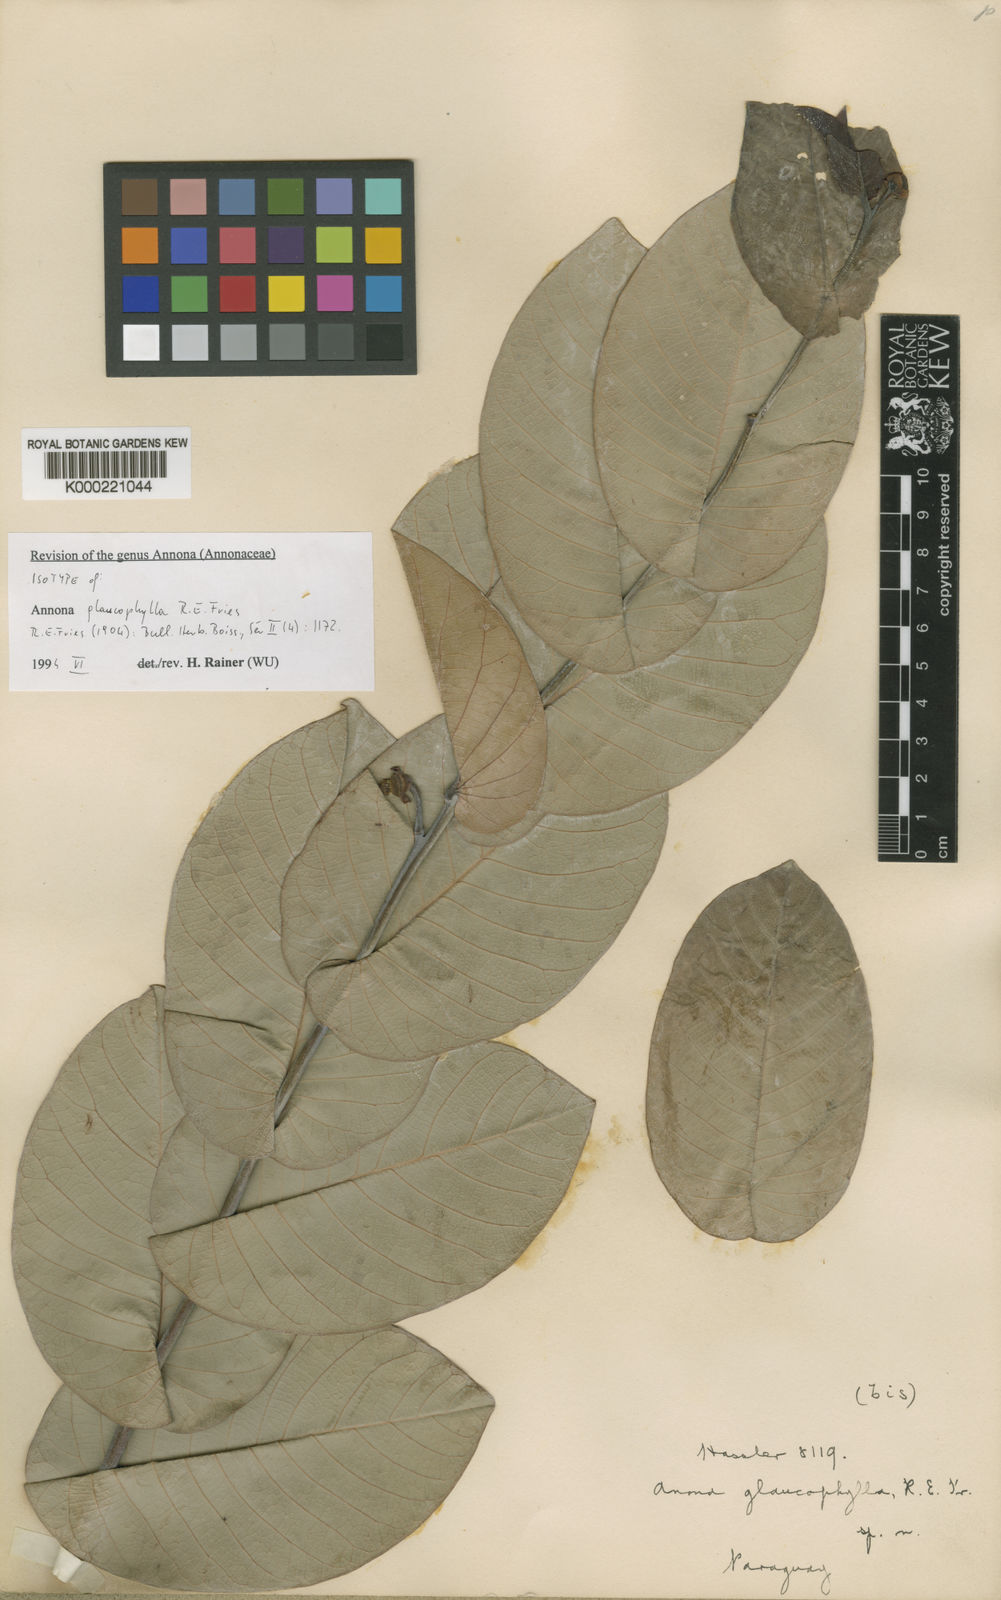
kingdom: Plantae
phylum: Tracheophyta
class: Magnoliopsida
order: Magnoliales
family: Annonaceae
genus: Annona
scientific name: Annona glaucophylla
